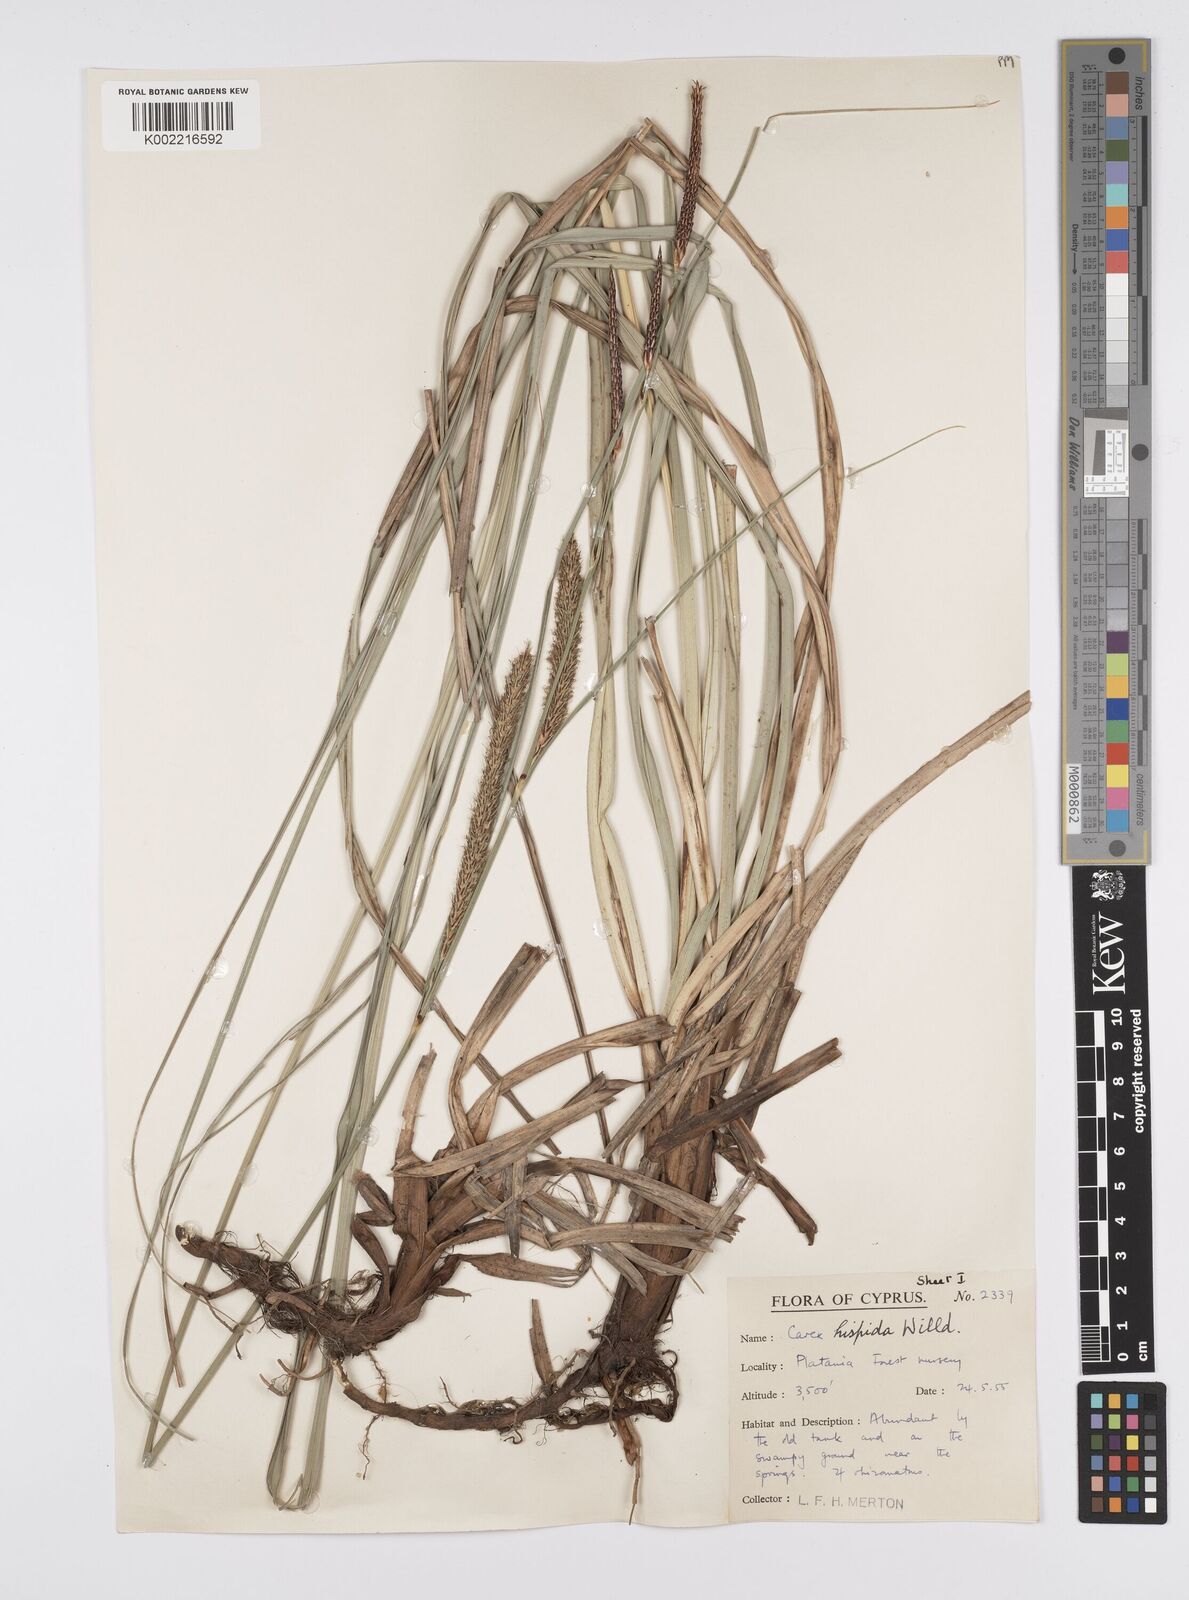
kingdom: Plantae
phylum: Tracheophyta
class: Liliopsida
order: Poales
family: Cyperaceae
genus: Carex
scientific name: Carex hispida
